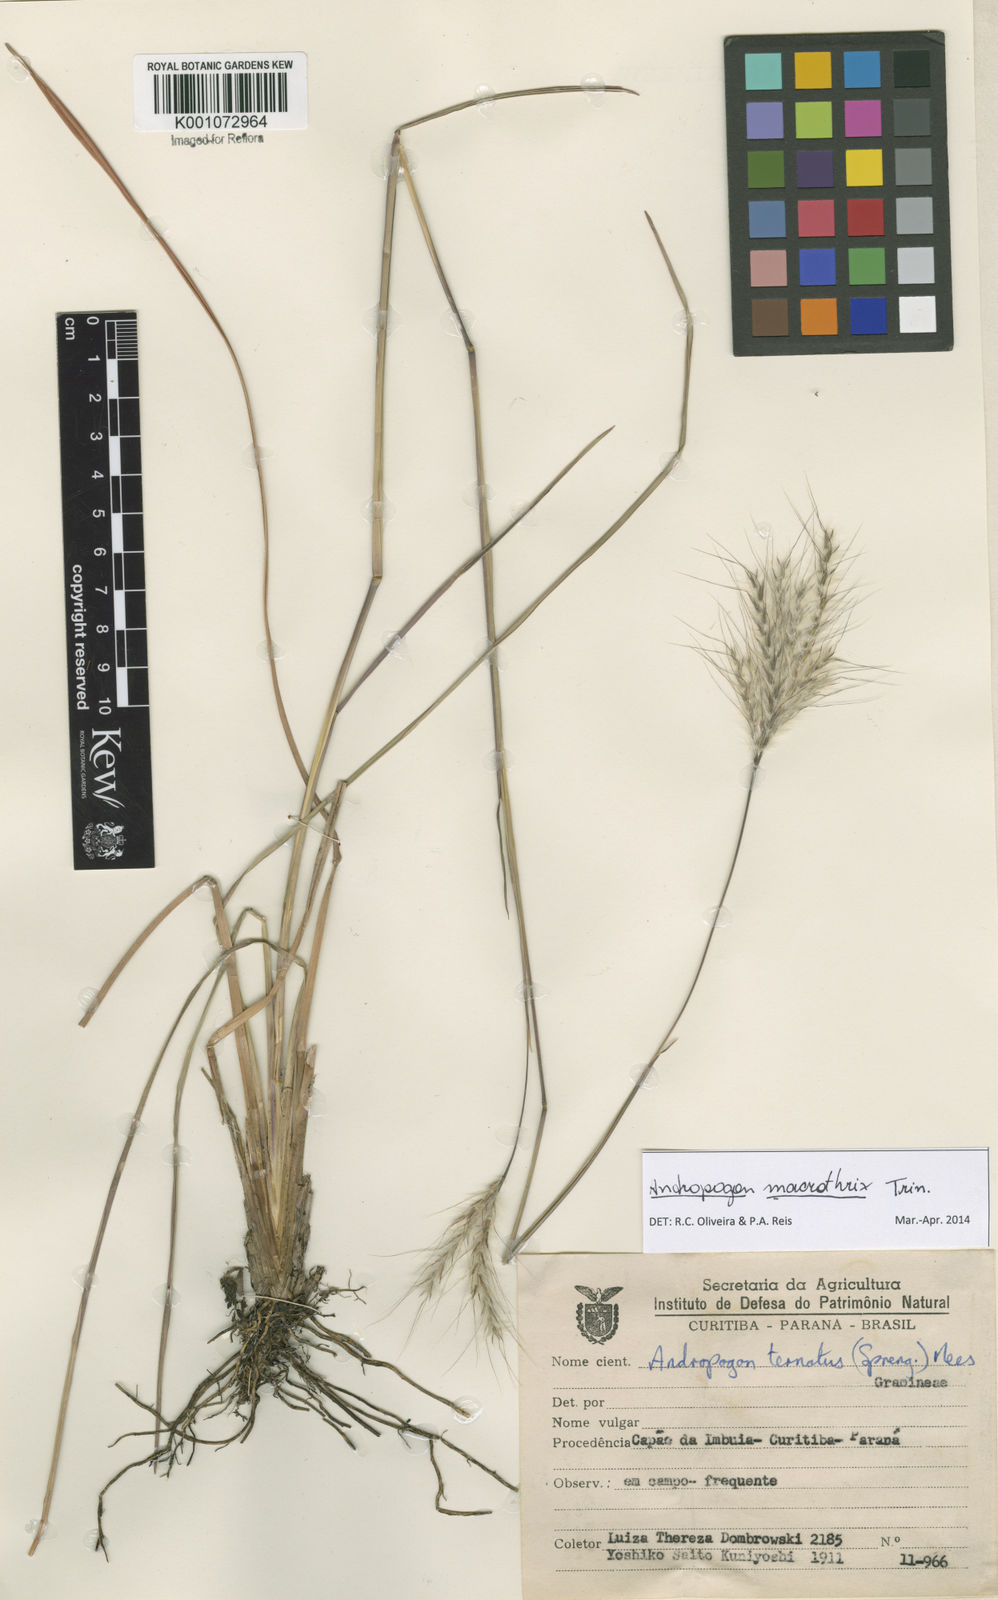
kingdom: Plantae
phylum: Tracheophyta
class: Liliopsida
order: Poales
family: Poaceae
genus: Andropogon
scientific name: Andropogon macrothrix
